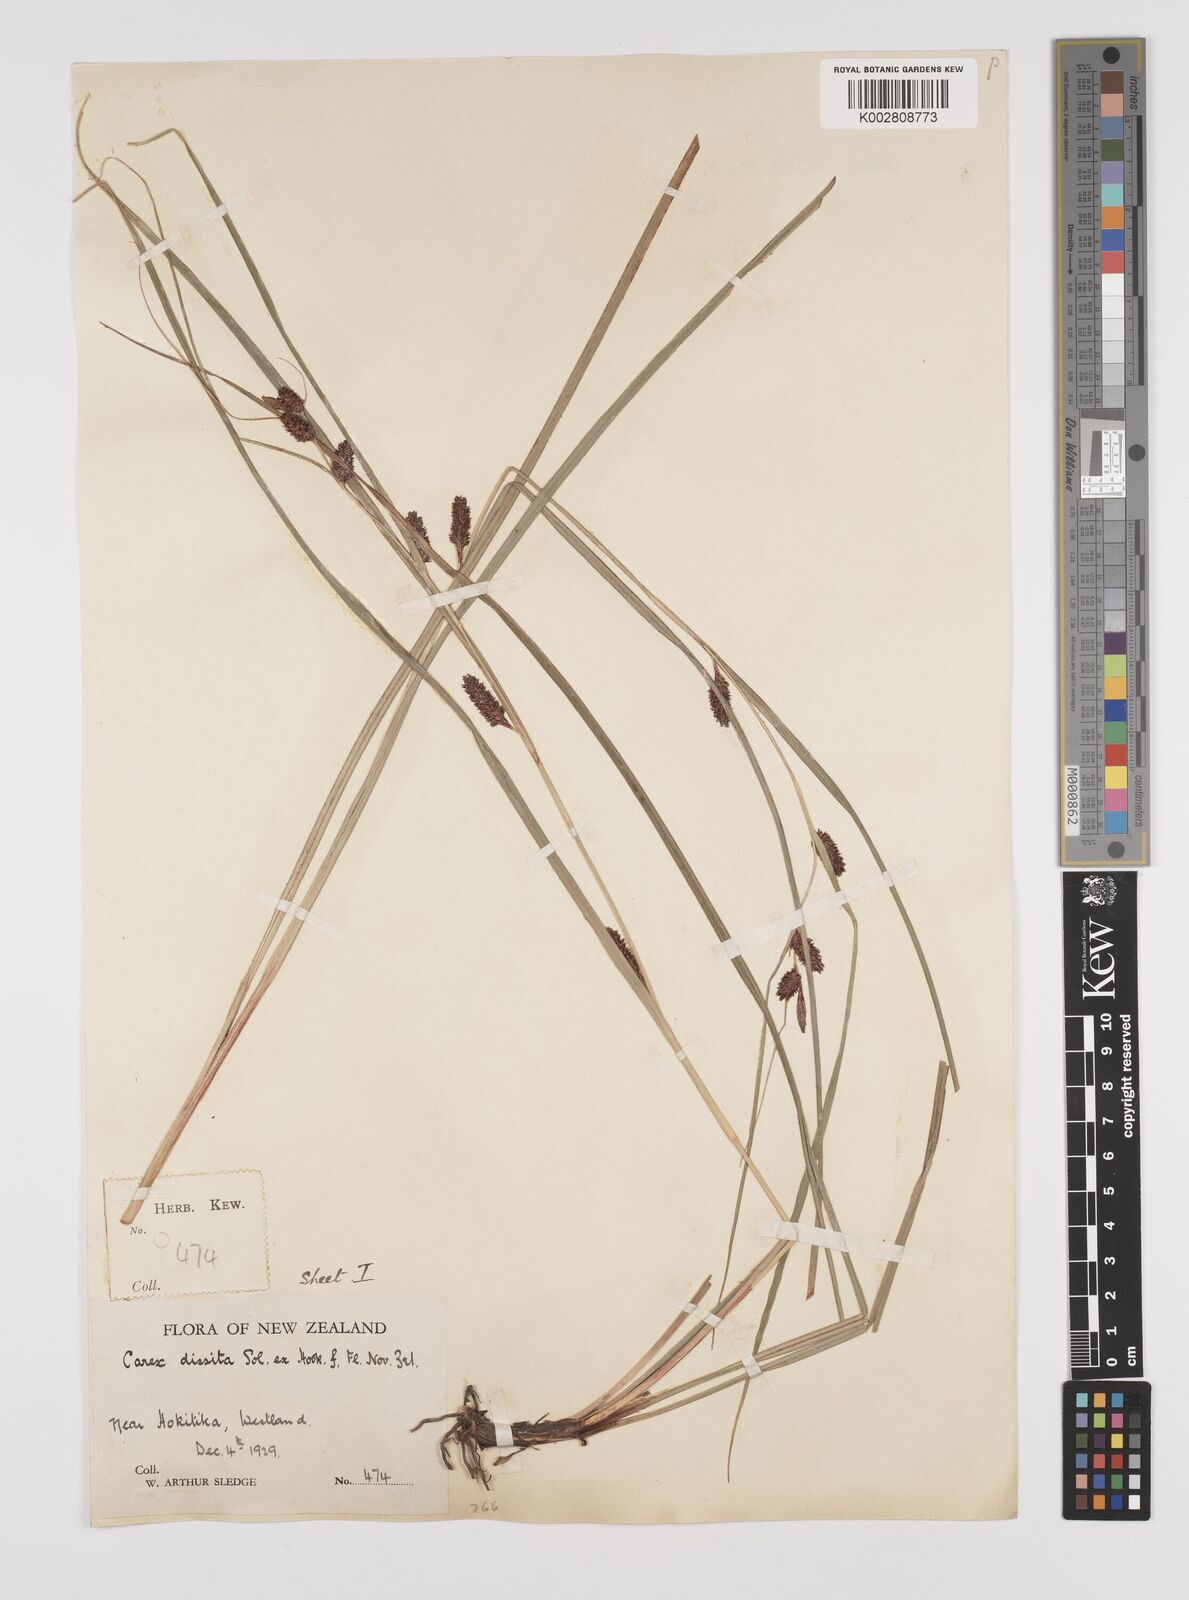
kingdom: Plantae
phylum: Tracheophyta
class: Liliopsida
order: Poales
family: Cyperaceae
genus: Carex
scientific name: Carex dissita
